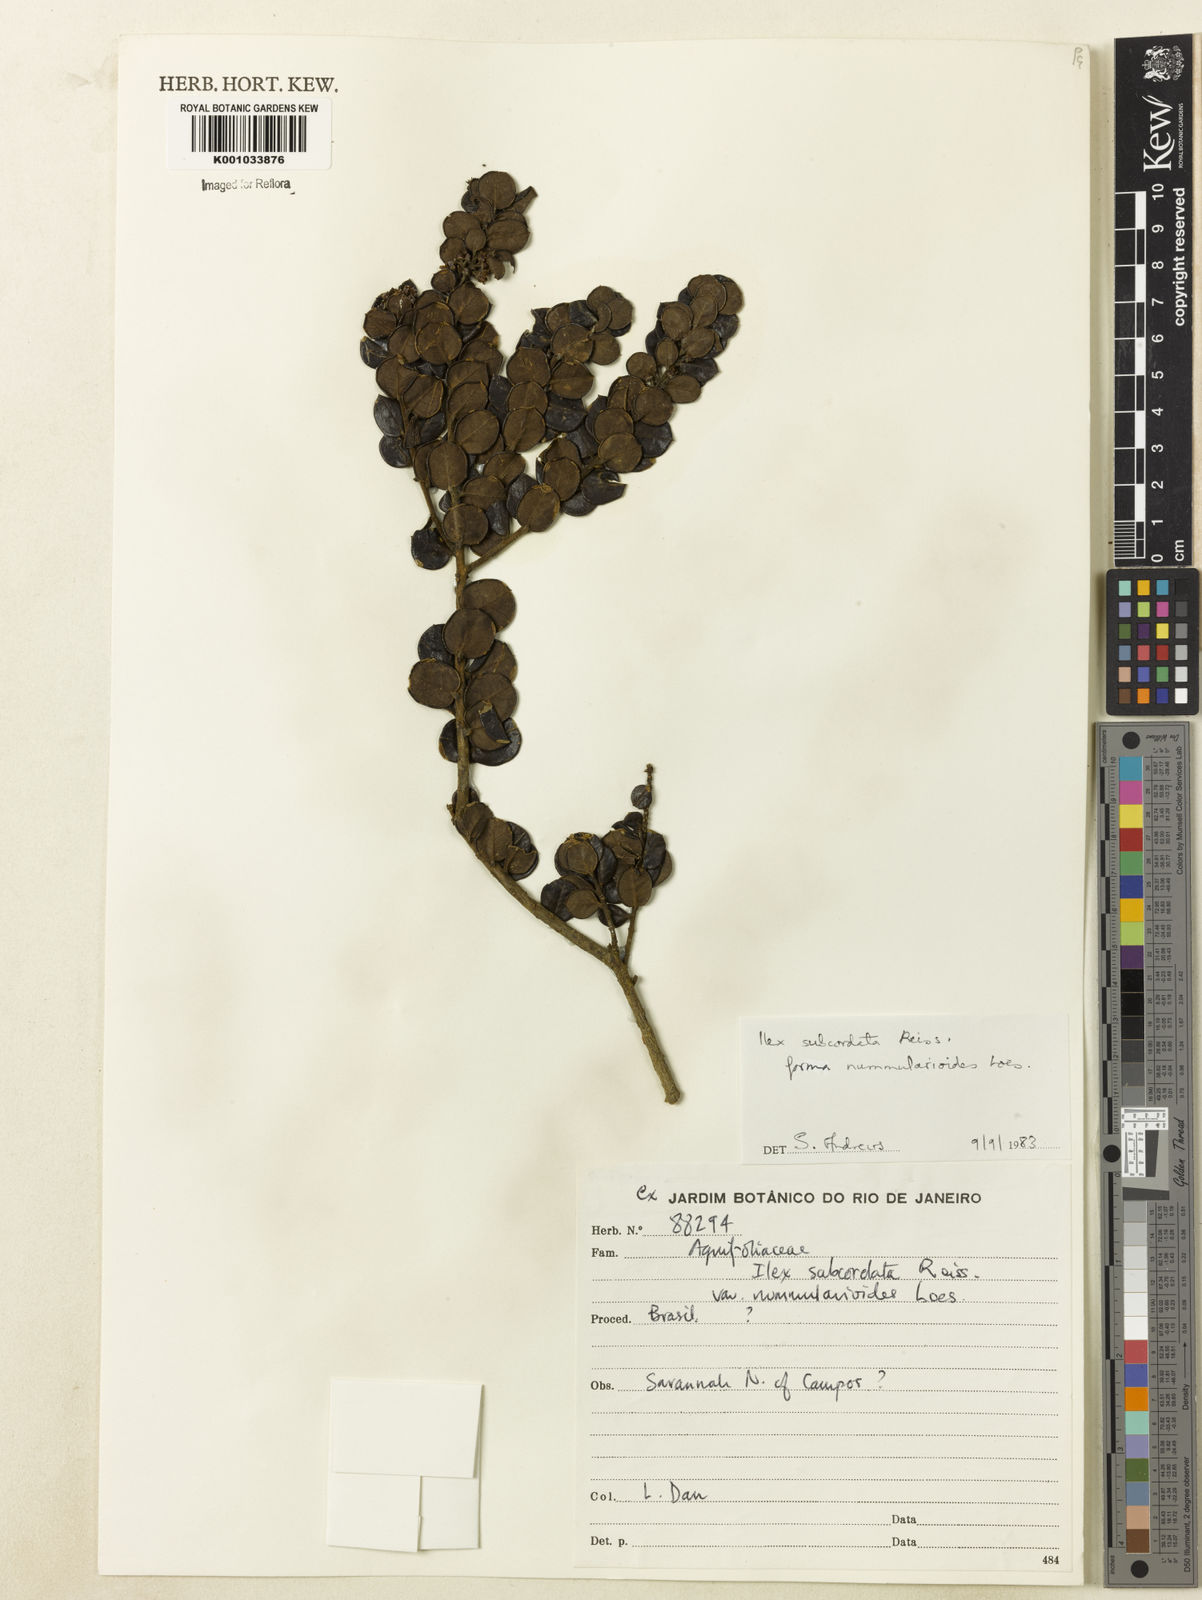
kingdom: Plantae
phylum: Tracheophyta
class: Magnoliopsida
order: Aquifoliales
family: Aquifoliaceae
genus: Ilex
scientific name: Ilex subcordata
